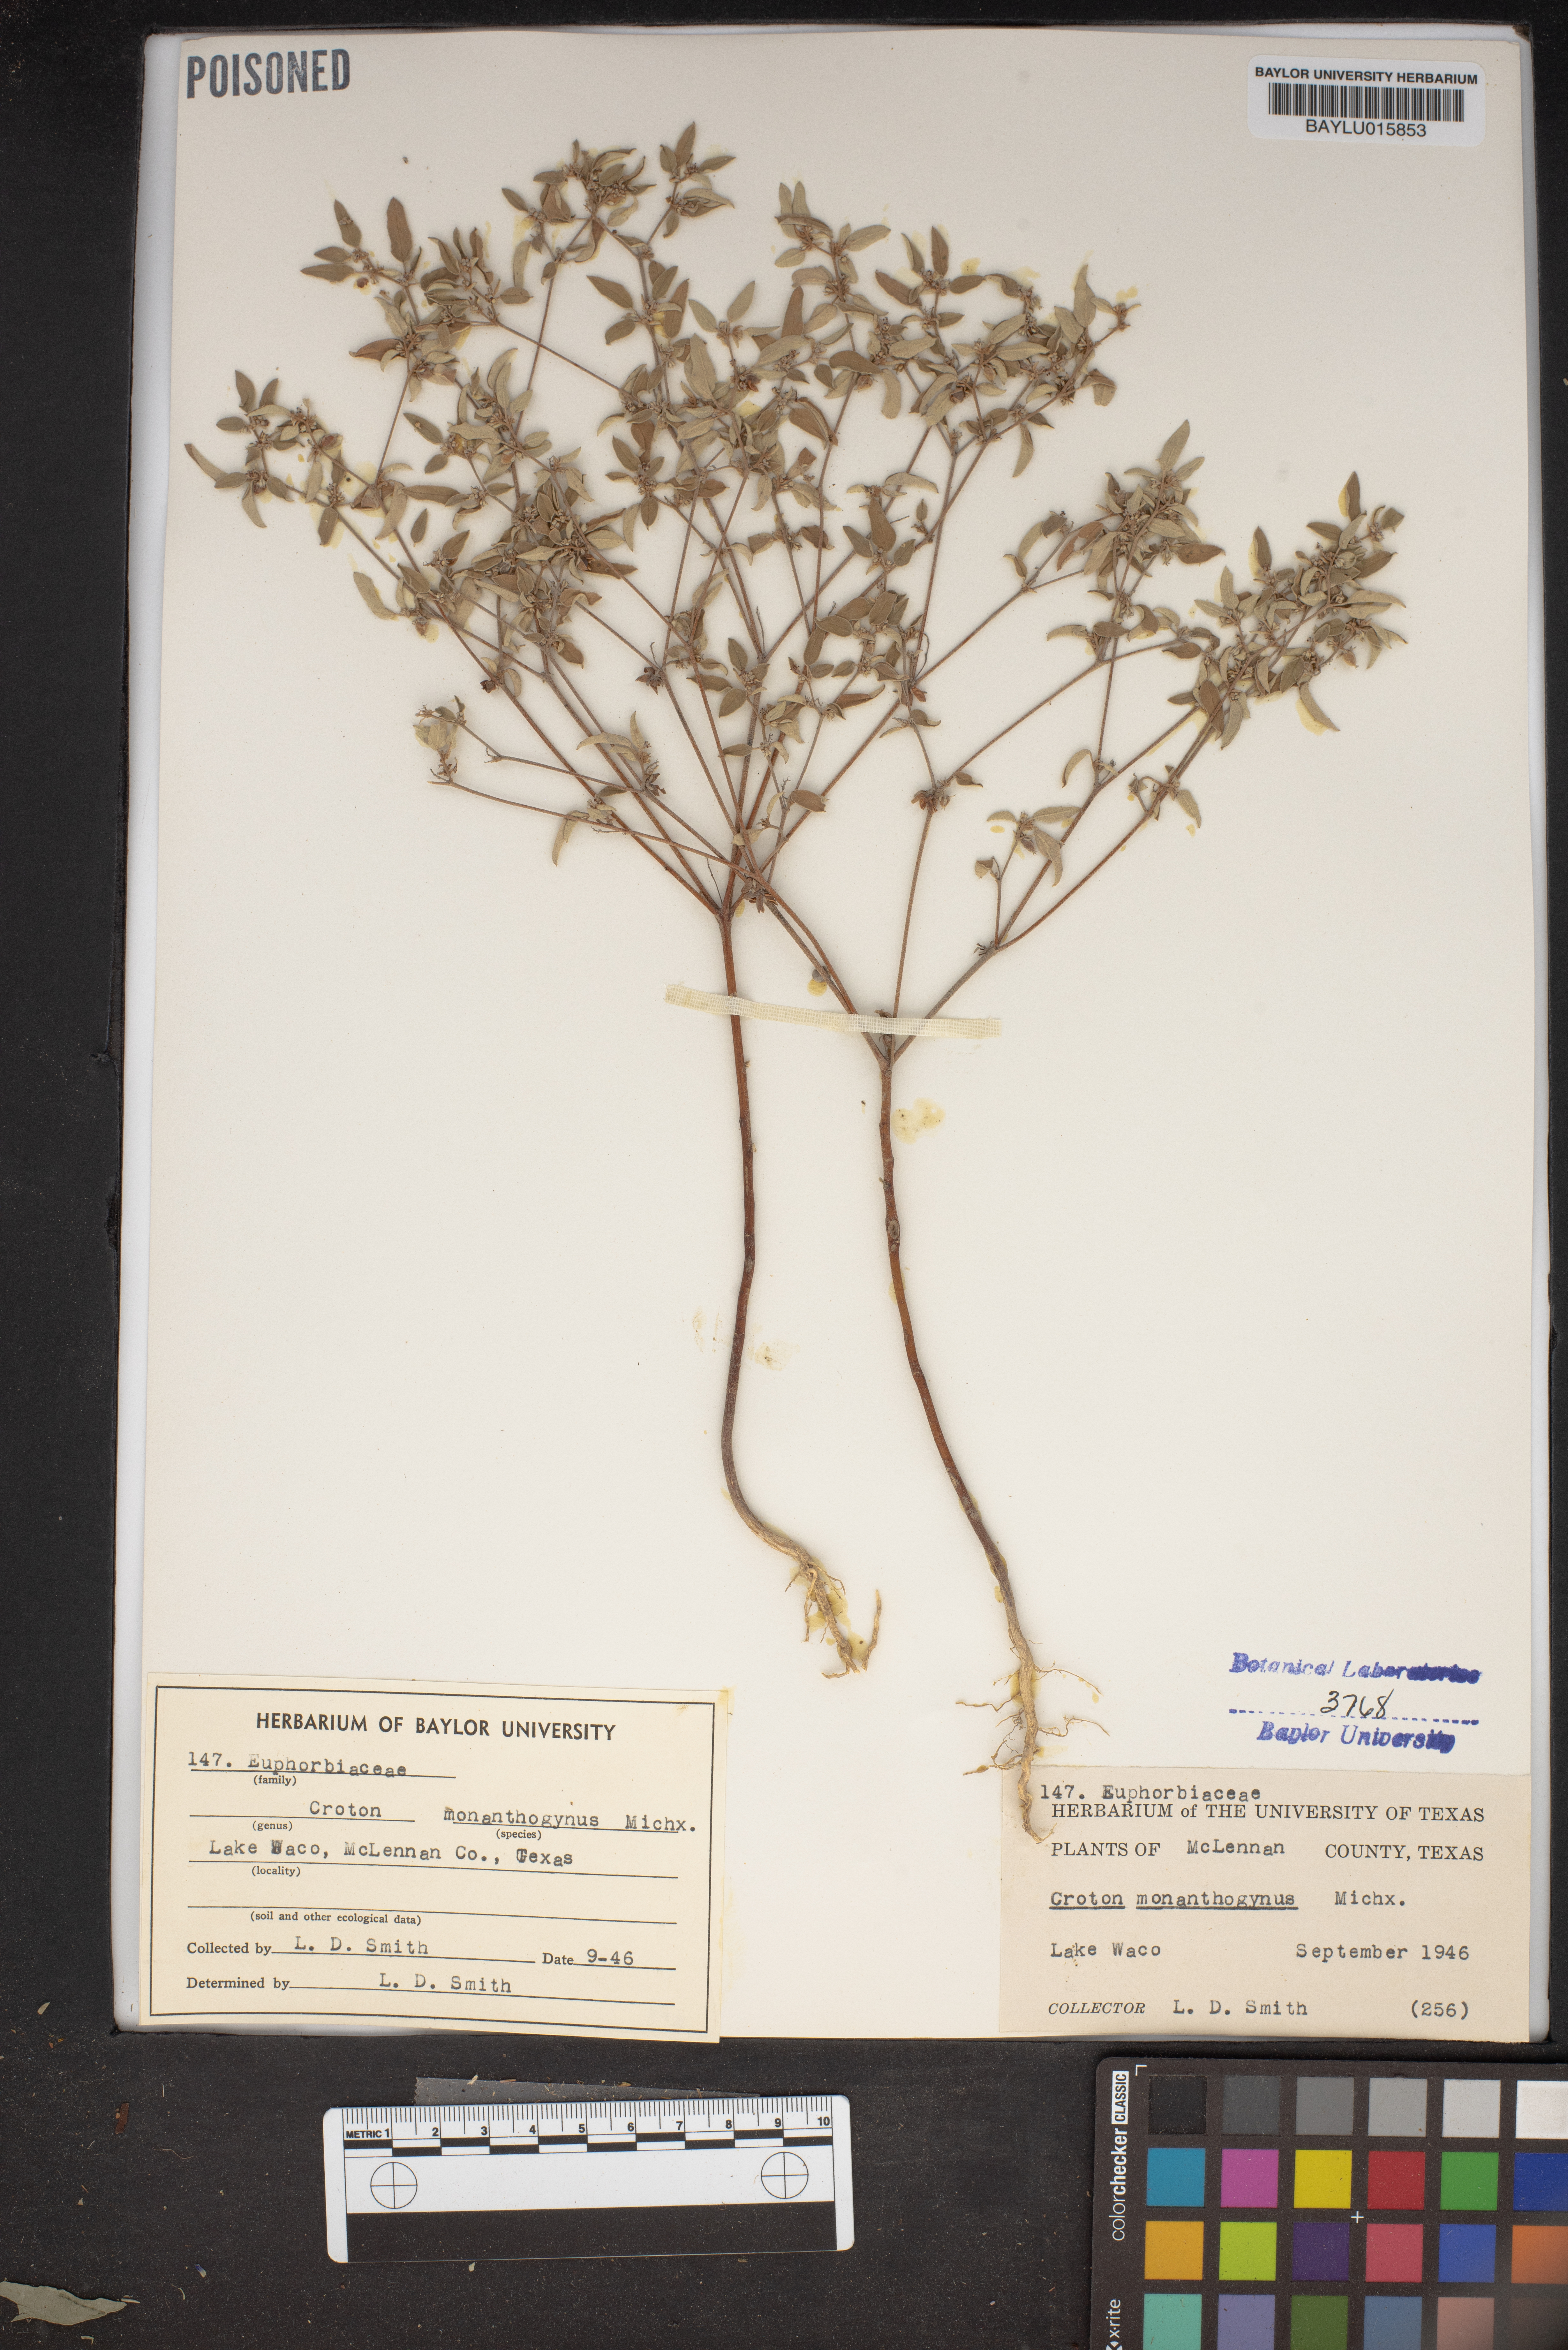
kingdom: Plantae
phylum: Tracheophyta
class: Magnoliopsida
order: Malpighiales
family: Euphorbiaceae
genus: Croton
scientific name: Croton monanthogynus
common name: One-seed croton
